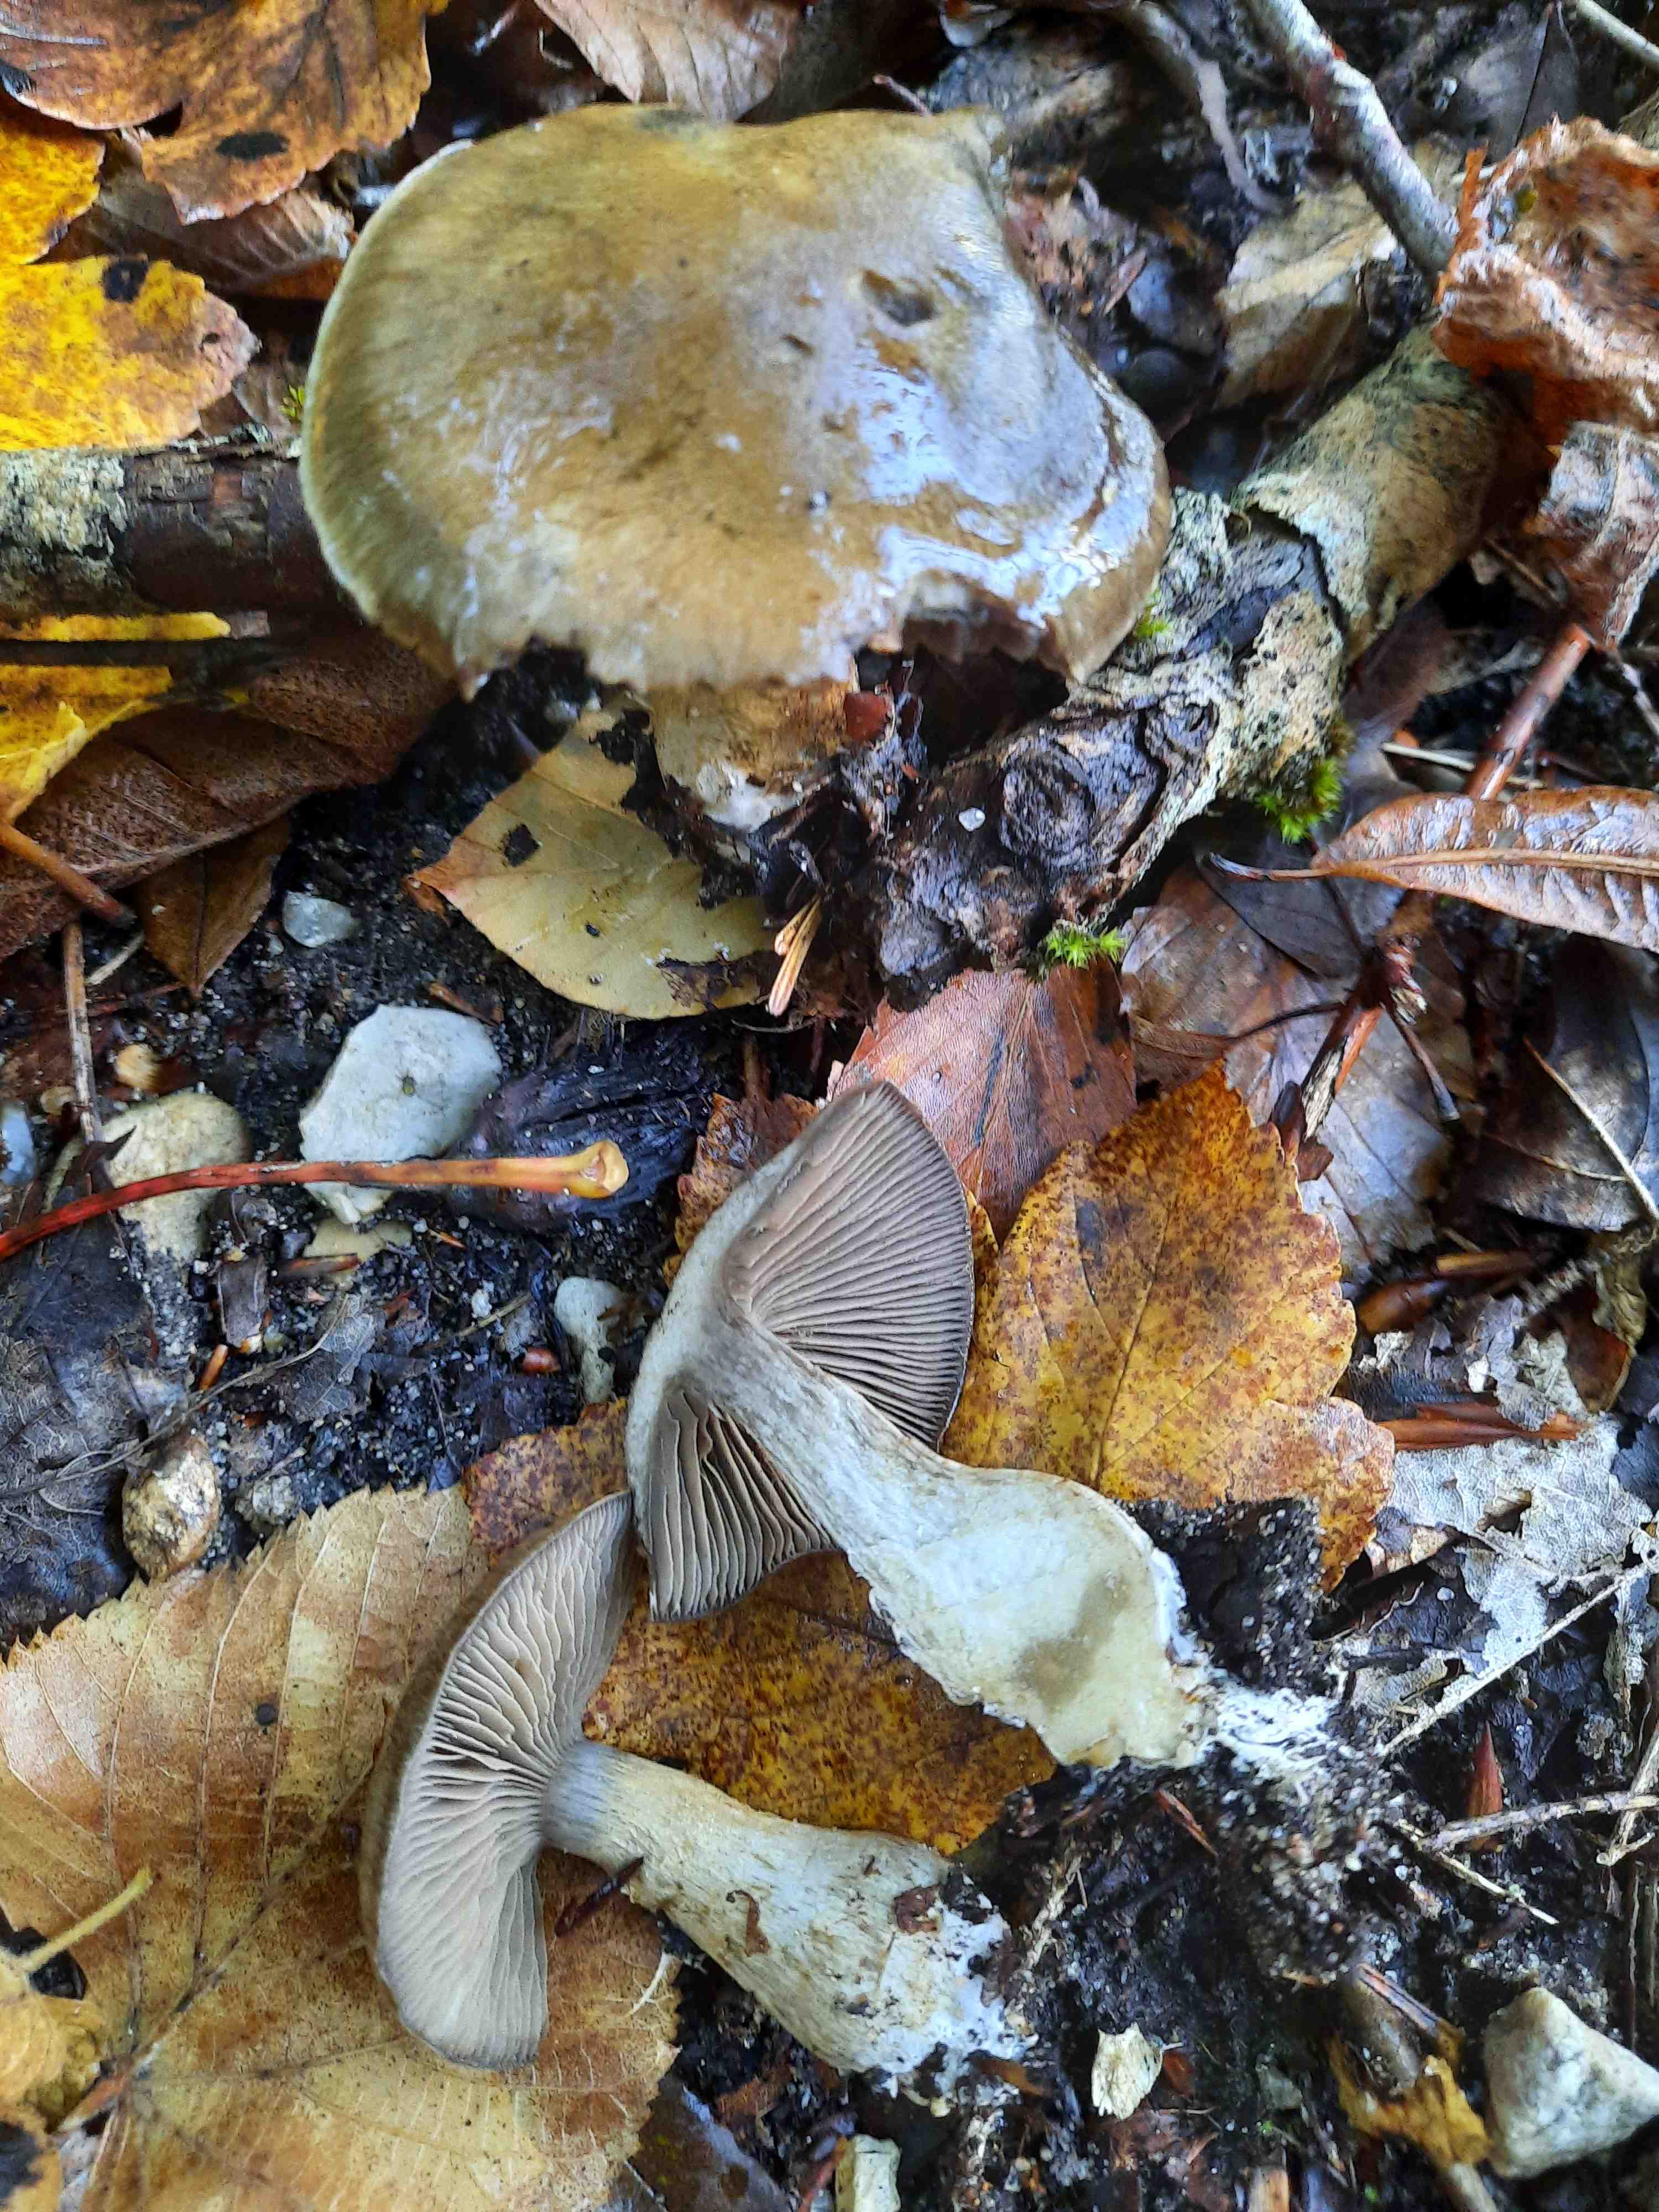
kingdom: Fungi
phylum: Basidiomycota
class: Agaricomycetes
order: Agaricales
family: Cortinariaceae
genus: Cortinarius
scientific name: Cortinarius
